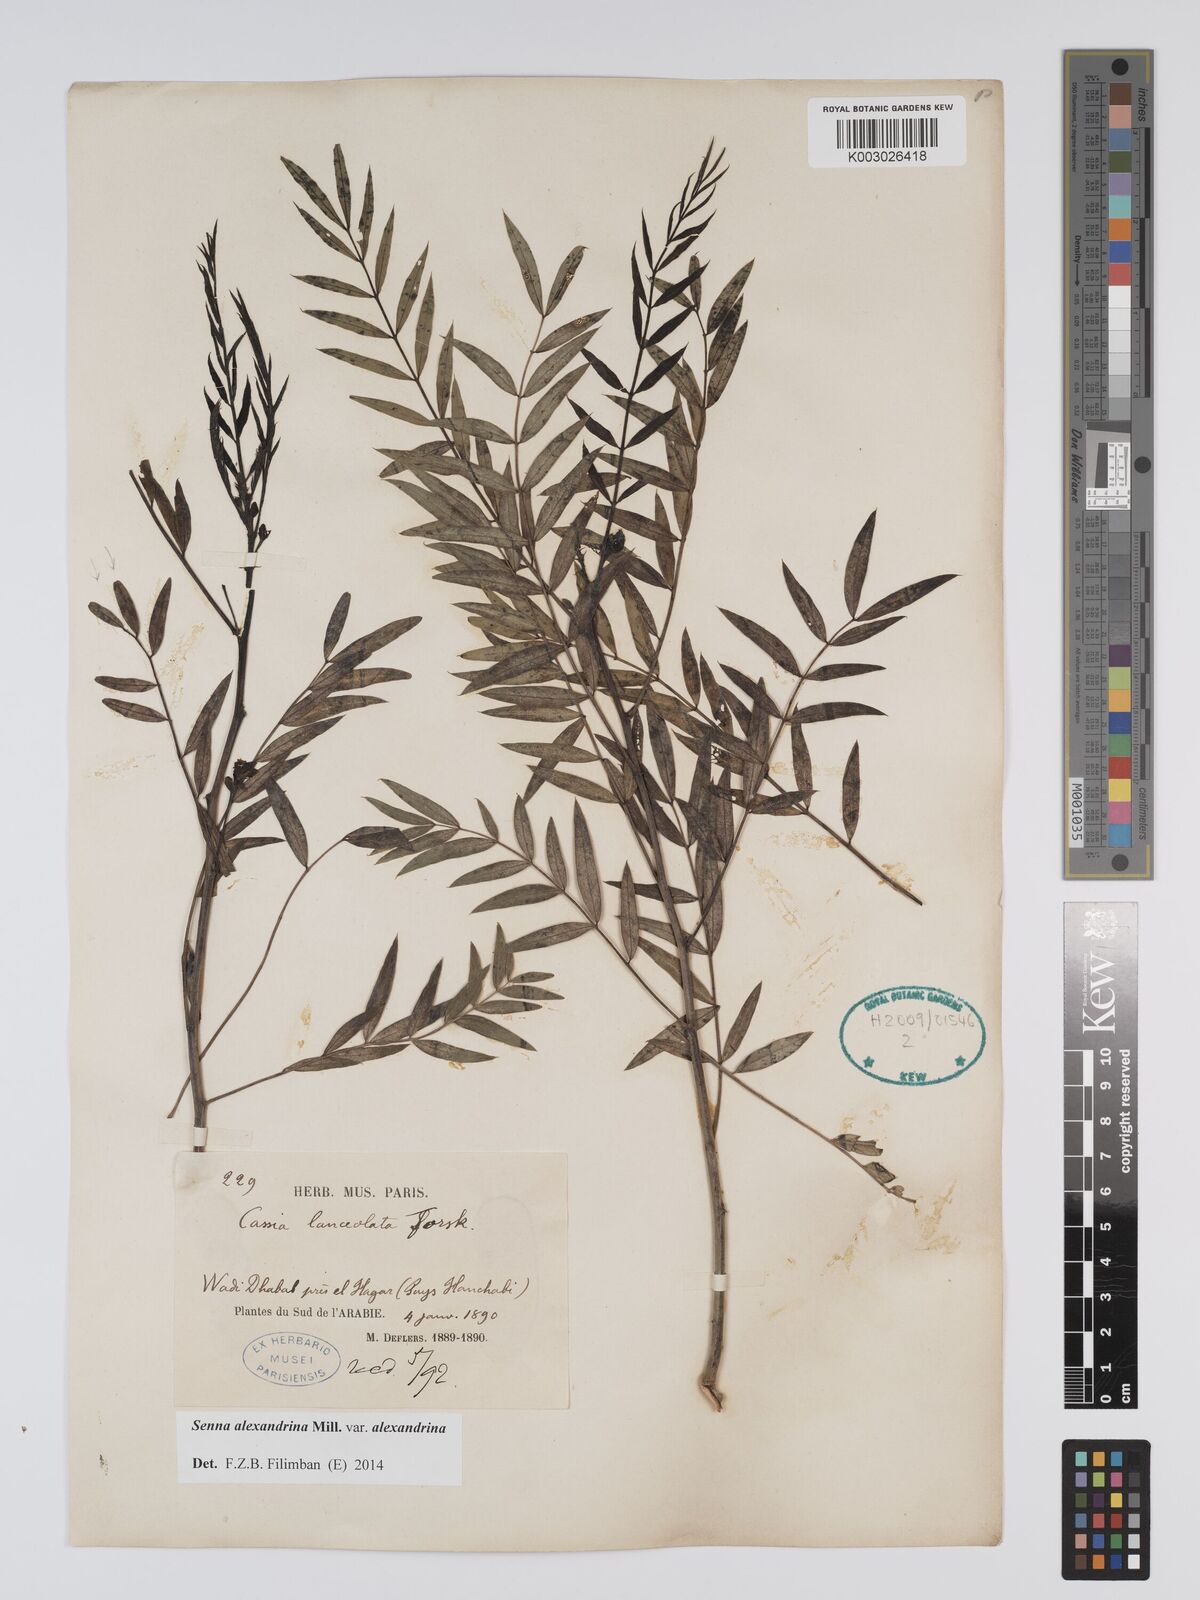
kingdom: Plantae
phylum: Tracheophyta
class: Magnoliopsida
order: Fabales
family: Fabaceae
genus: Senna
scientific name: Senna alexandrina
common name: True senna
